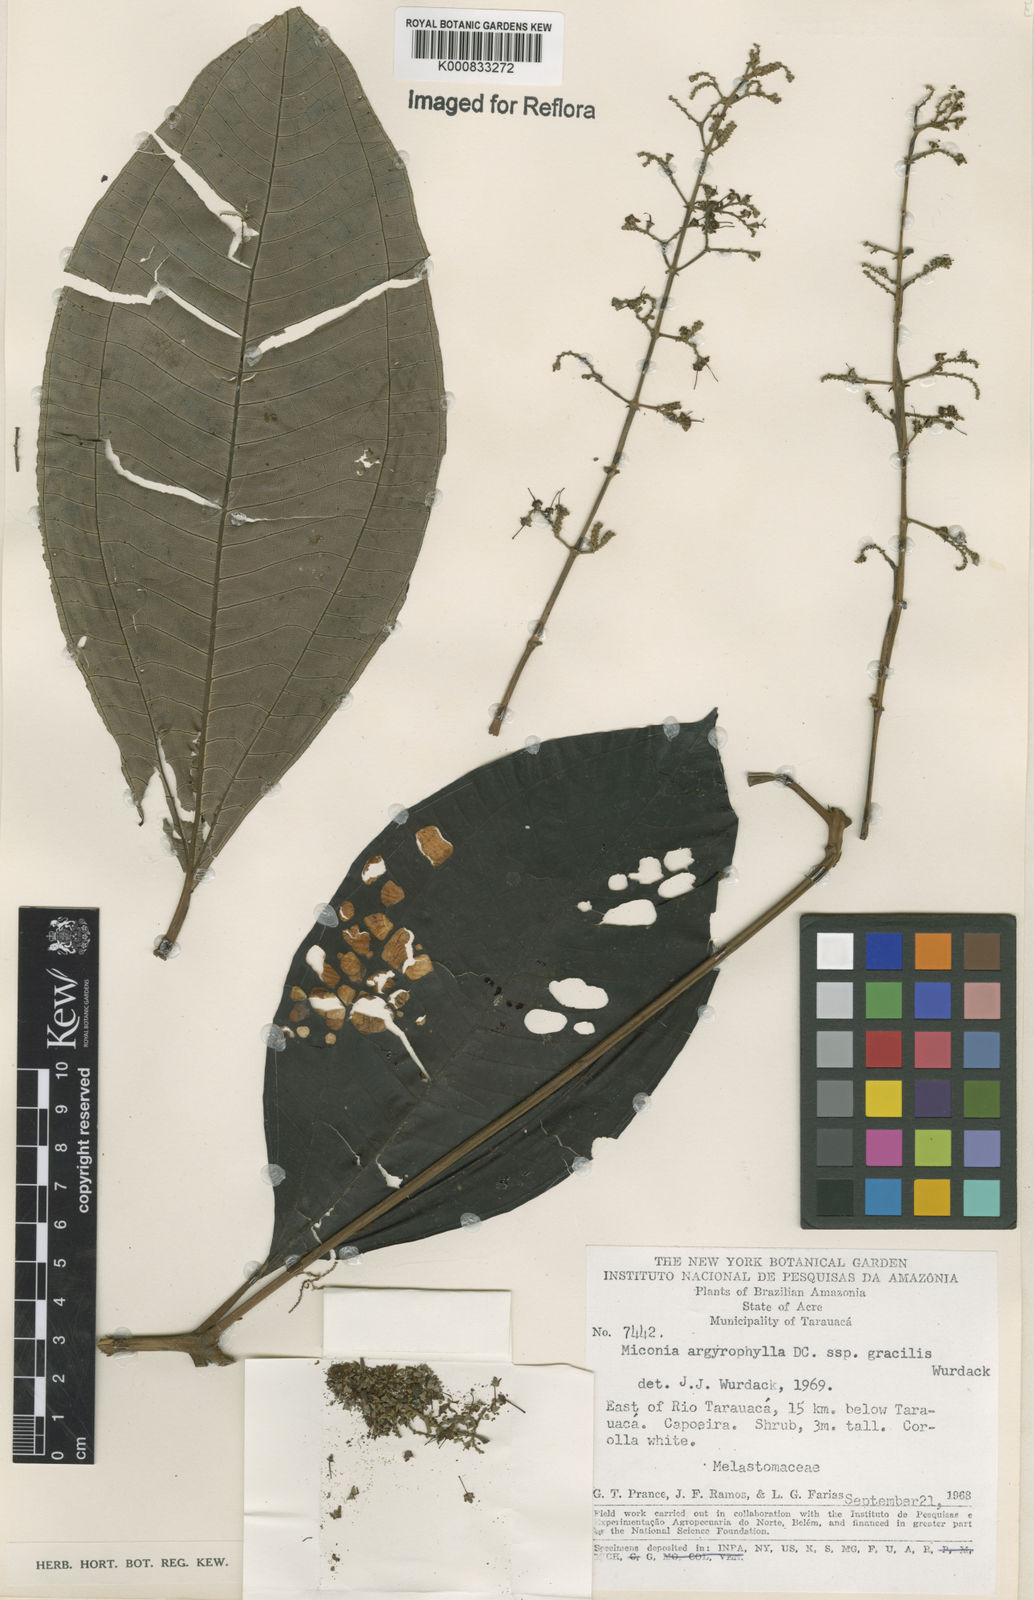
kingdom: Plantae
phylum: Tracheophyta
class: Magnoliopsida
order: Myrtales
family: Melastomataceae
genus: Miconia
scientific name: Miconia argyrophylla
